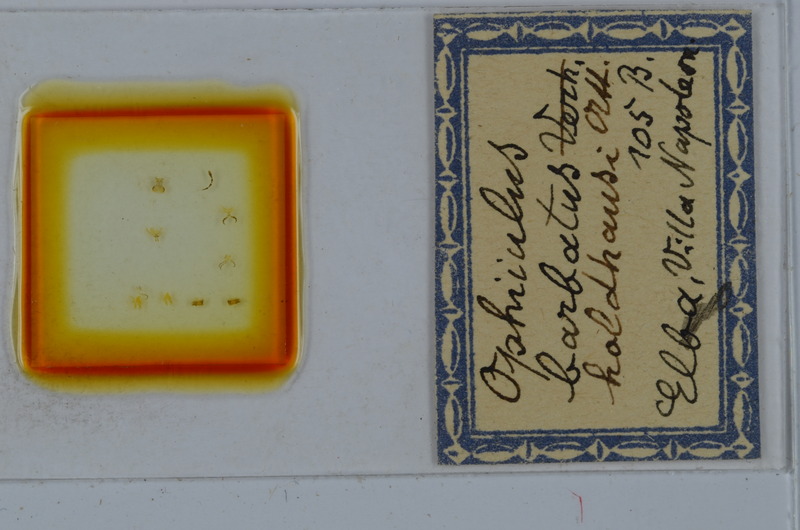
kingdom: Animalia
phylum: Arthropoda
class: Diplopoda
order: Julida
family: Julidae
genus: Ophyiulus
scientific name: Ophyiulus chilopogon
